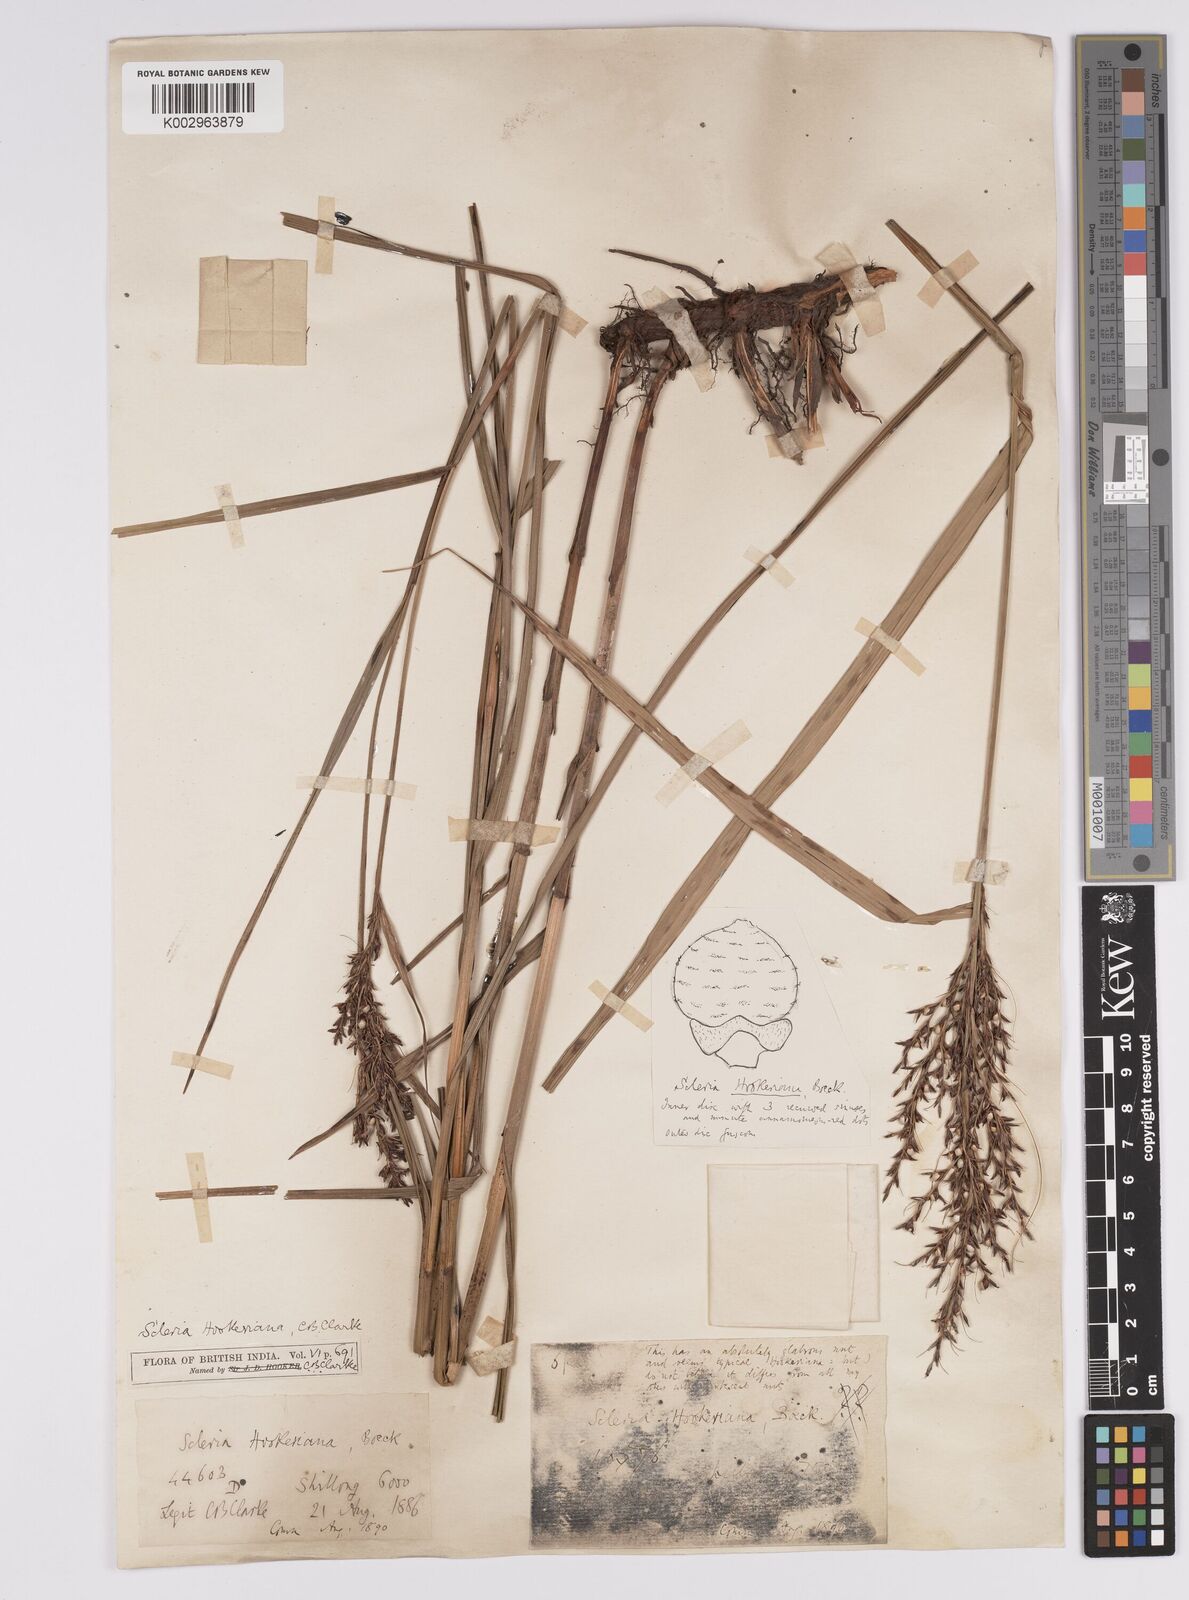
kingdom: Plantae
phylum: Tracheophyta
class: Liliopsida
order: Poales
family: Cyperaceae
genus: Scleria
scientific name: Scleria terrestris
